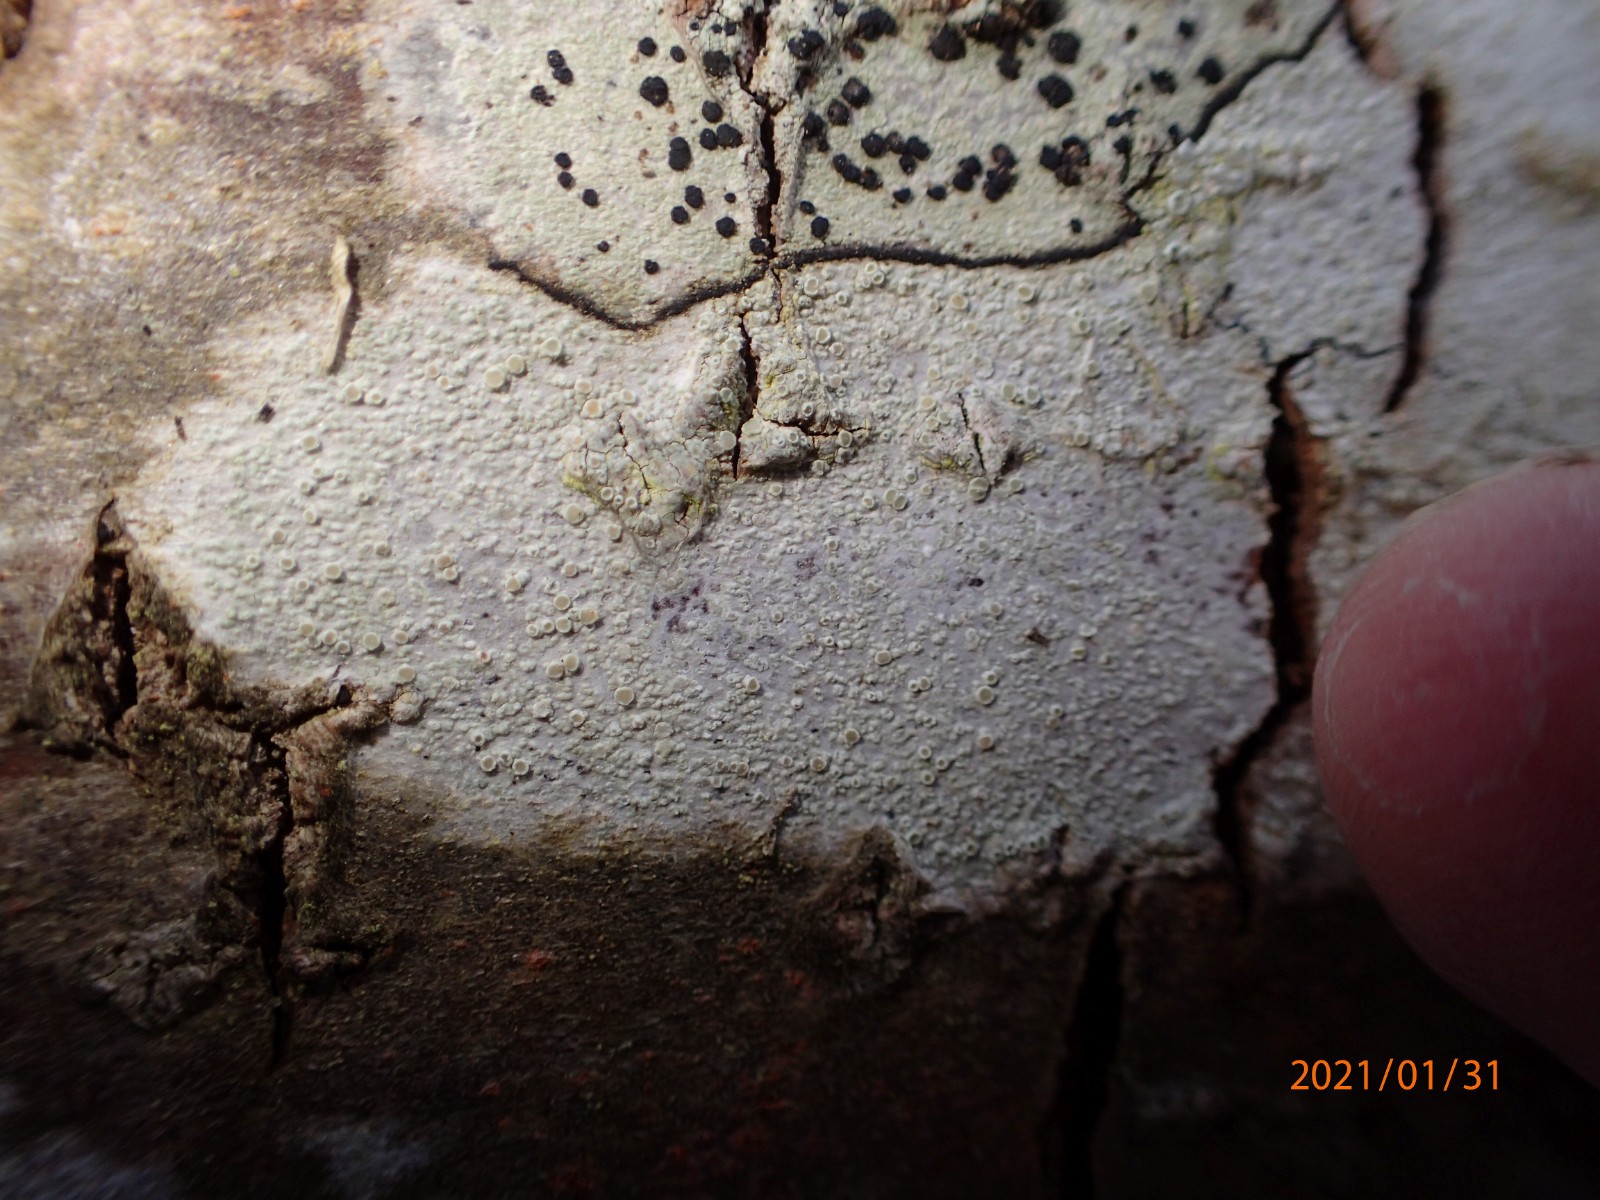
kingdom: Fungi
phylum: Ascomycota
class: Lecanoromycetes
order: Lecanorales
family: Lecanoraceae
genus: Glaucomaria
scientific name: Glaucomaria carpinea
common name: hviddugget kantskivelav
